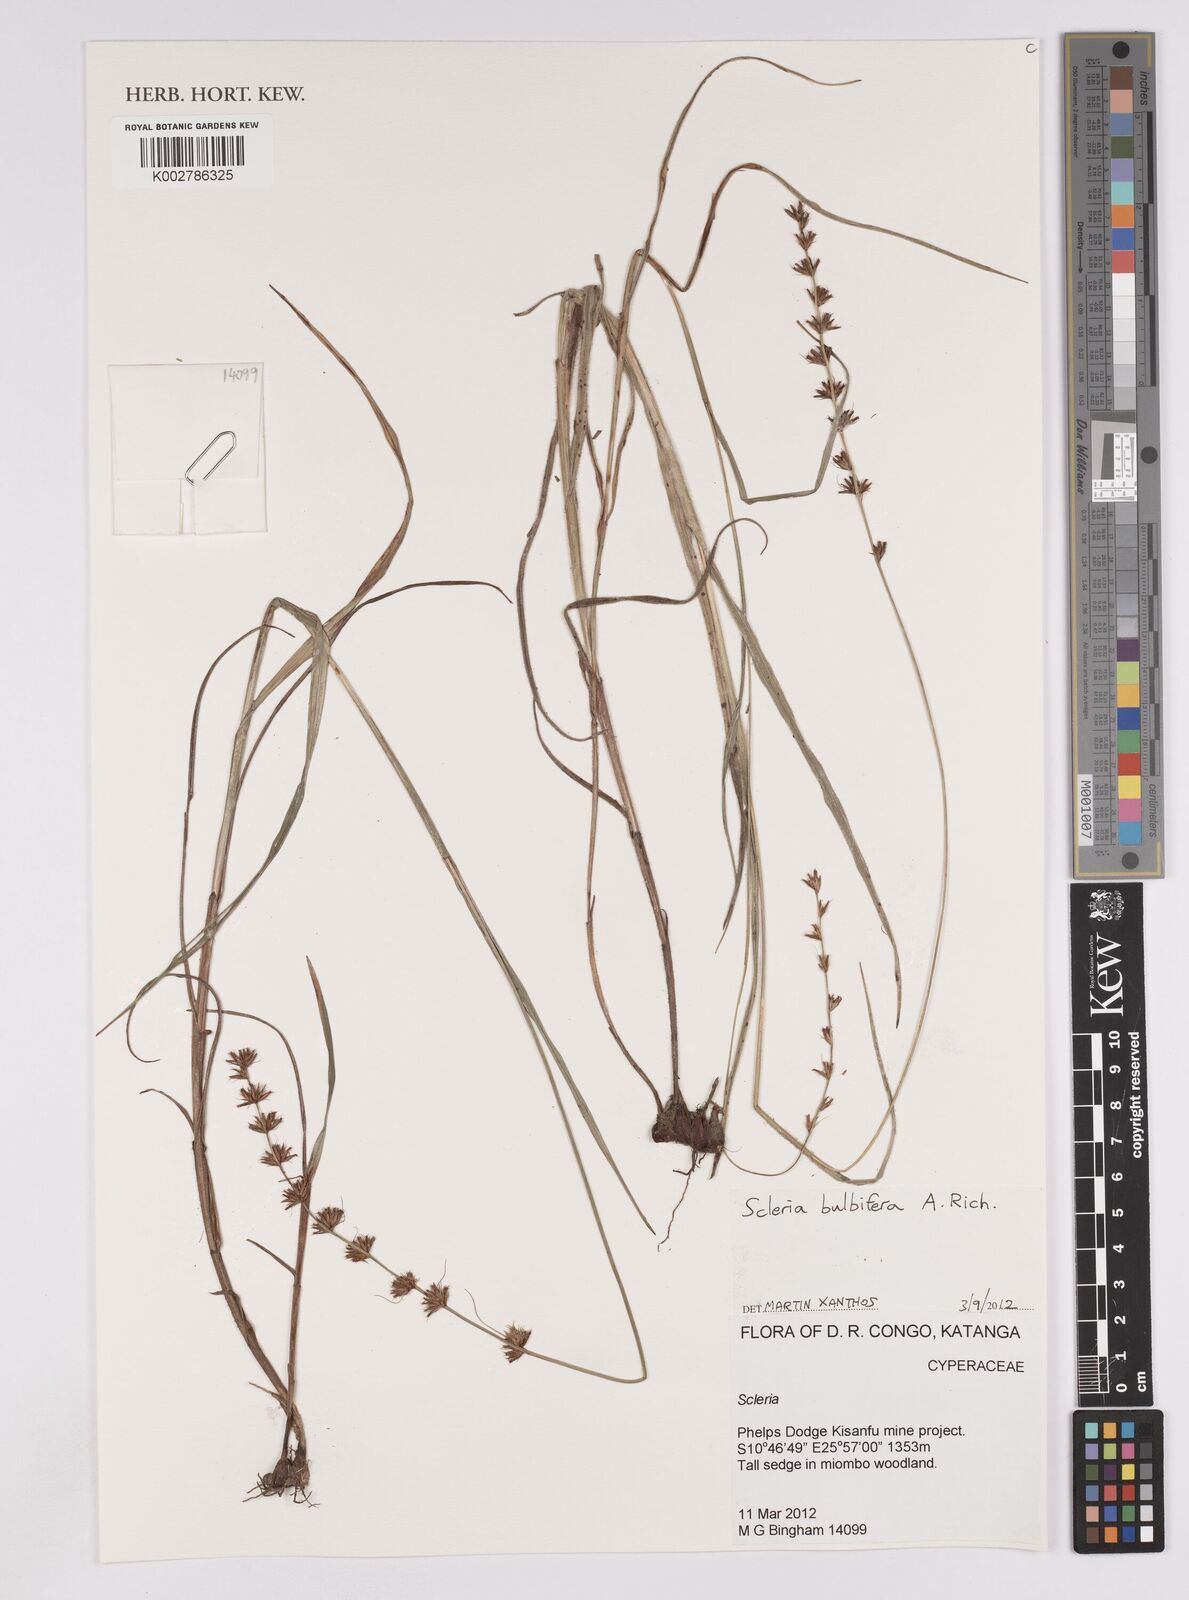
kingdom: Plantae
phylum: Tracheophyta
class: Liliopsida
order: Poales
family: Cyperaceae
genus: Scleria
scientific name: Scleria bulbifera
